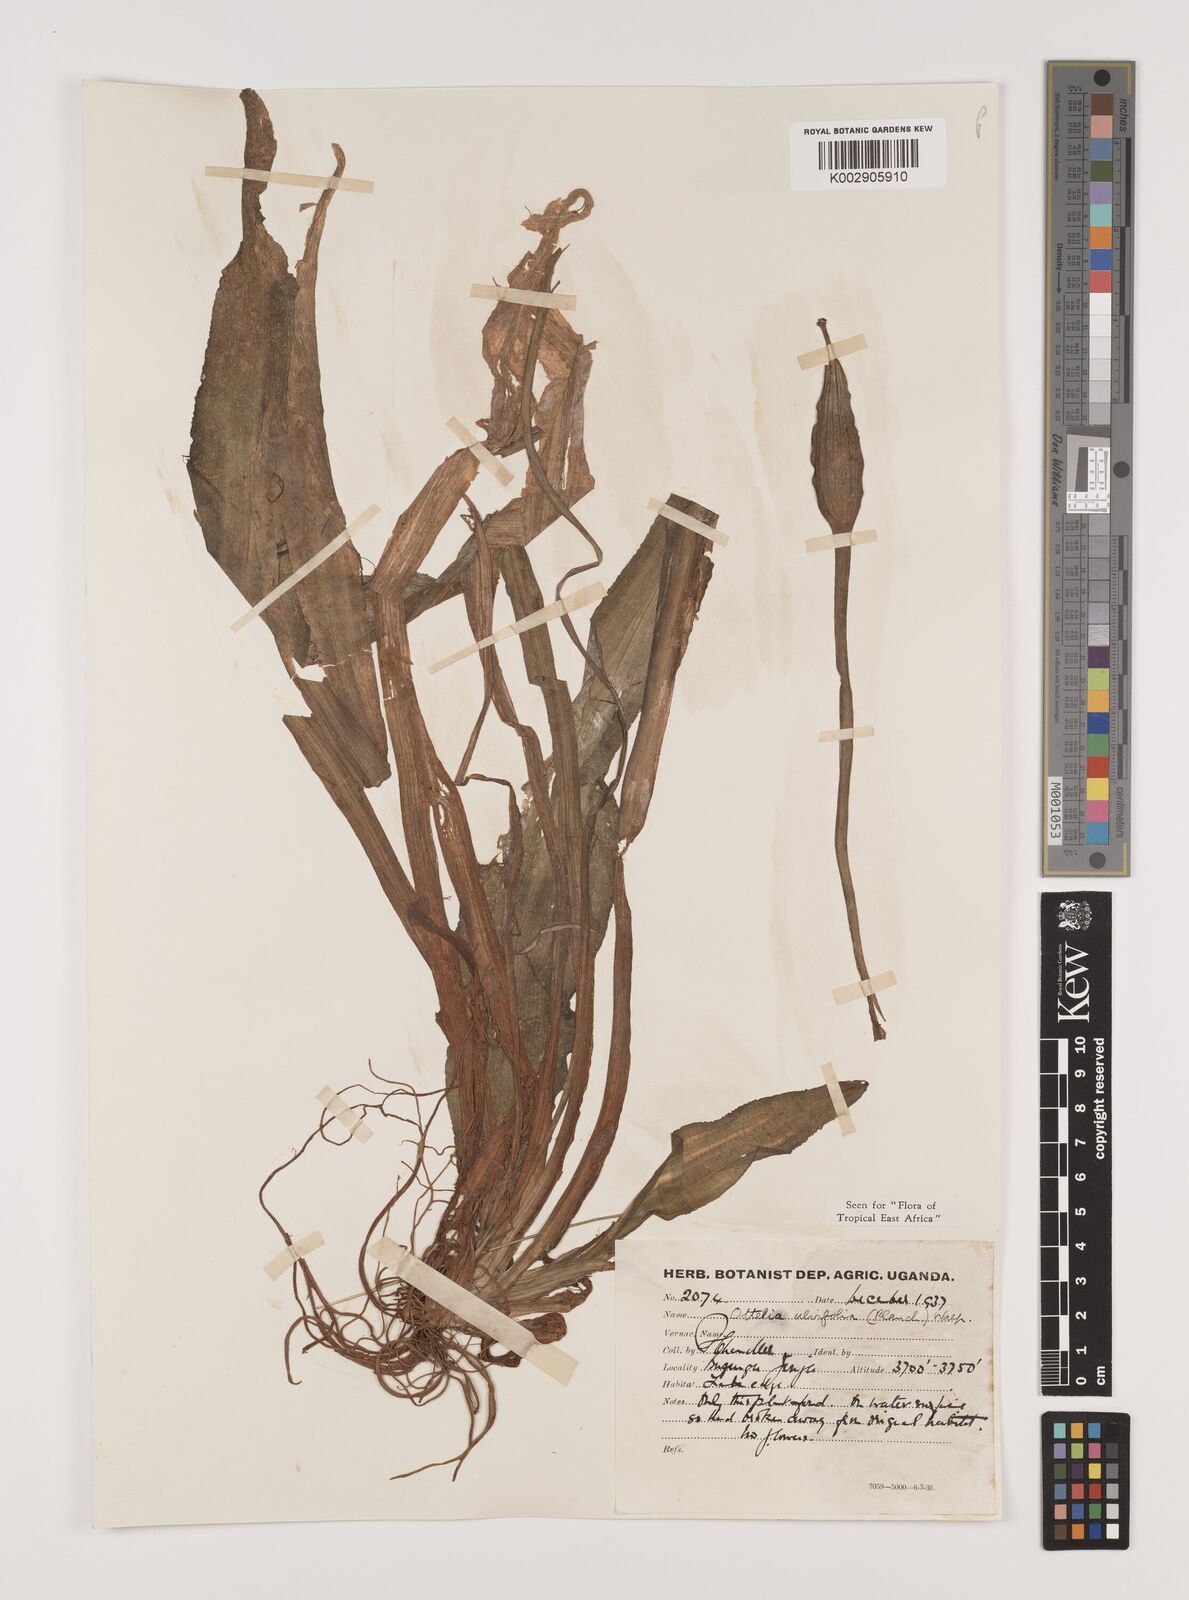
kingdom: Plantae
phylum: Tracheophyta
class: Liliopsida
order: Alismatales
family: Hydrocharitaceae
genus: Ottelia
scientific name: Ottelia ulvifolia
